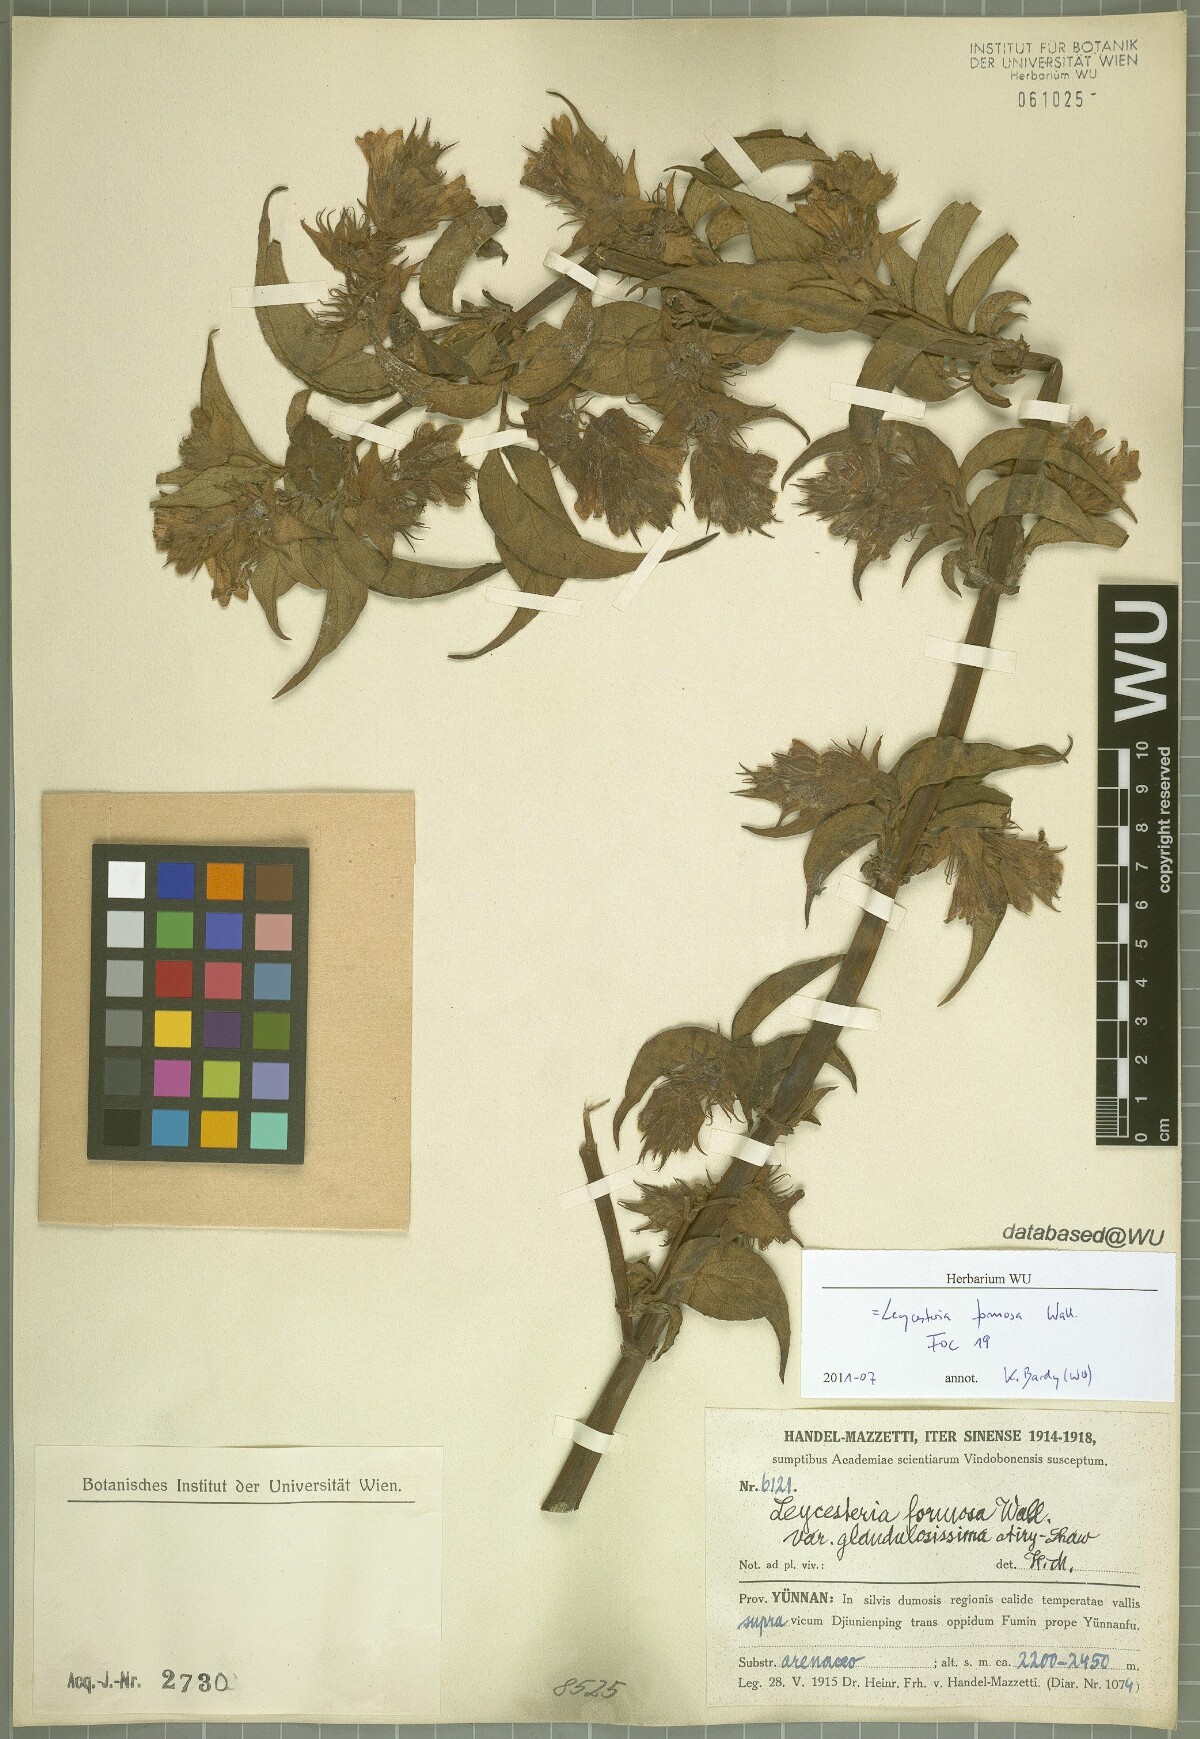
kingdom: Plantae
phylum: Tracheophyta
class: Magnoliopsida
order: Dipsacales
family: Caprifoliaceae
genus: Leycesteria
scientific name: Leycesteria formosa
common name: Himalayan honeysuckle
